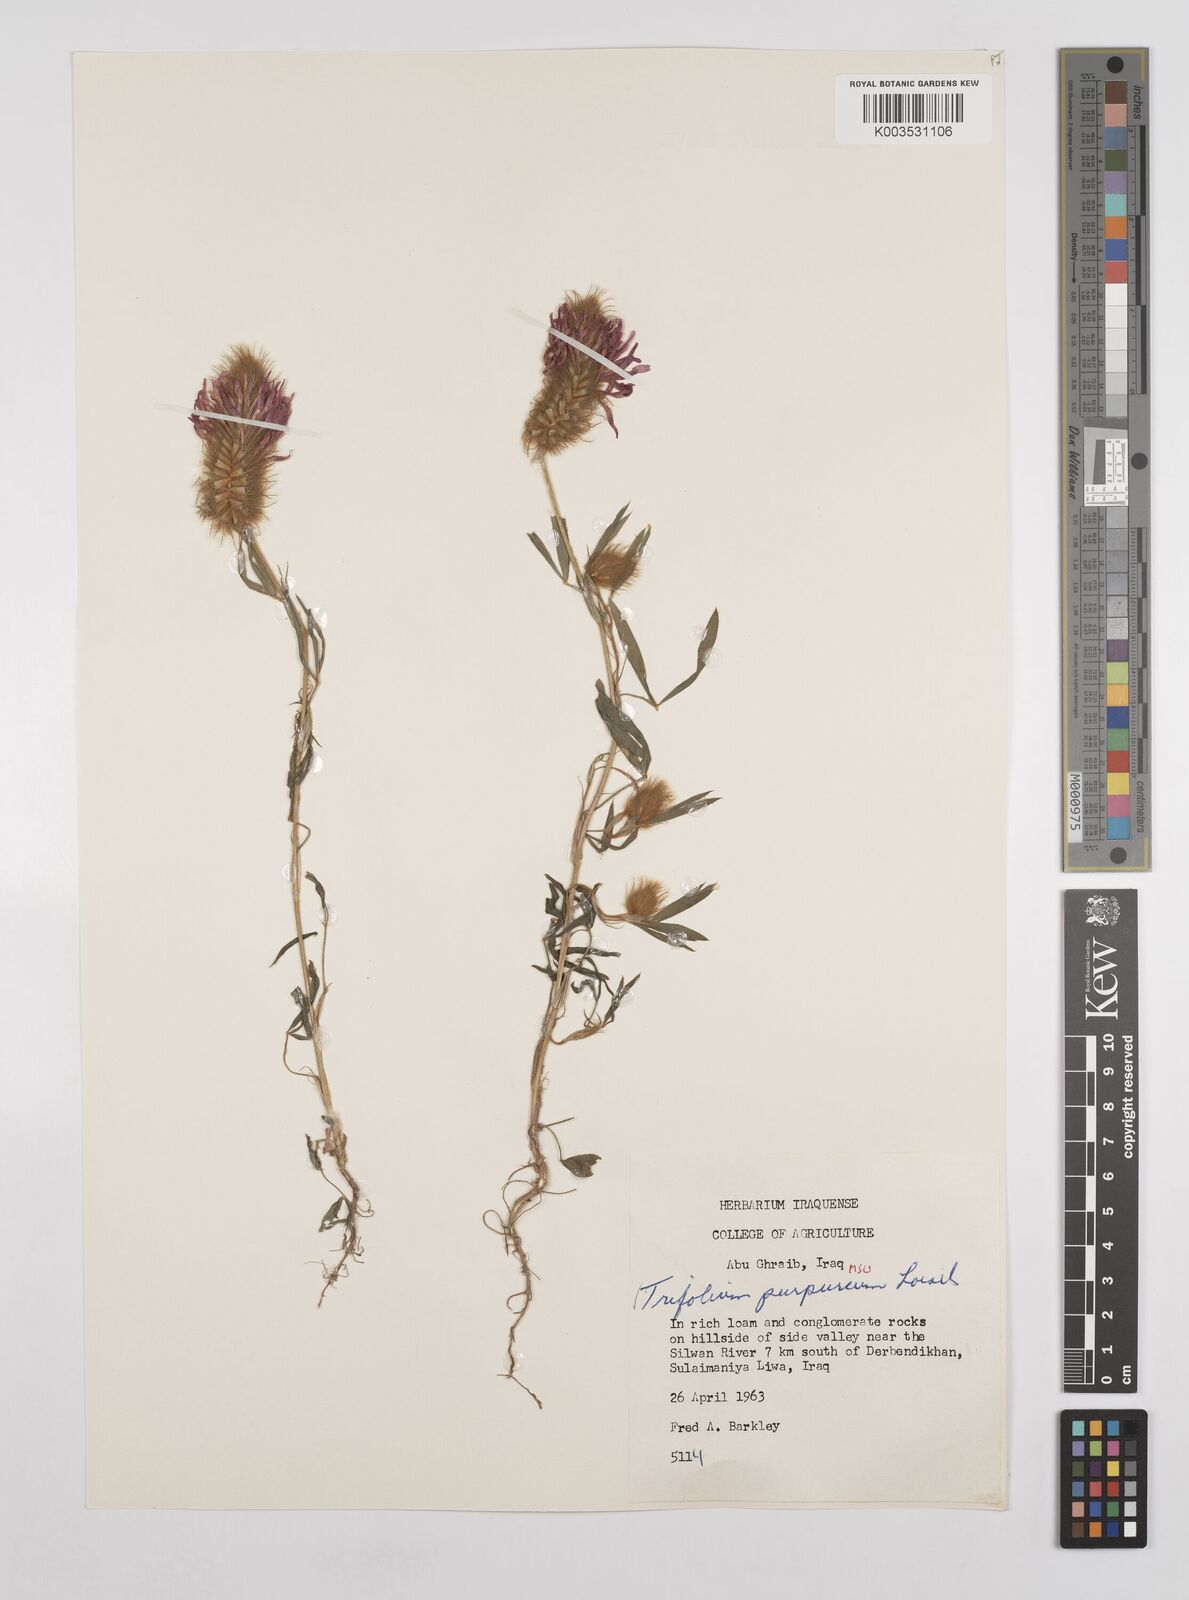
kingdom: Plantae
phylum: Tracheophyta
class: Magnoliopsida
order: Fabales
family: Fabaceae
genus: Trifolium
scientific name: Trifolium purpureum
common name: Purple clover
